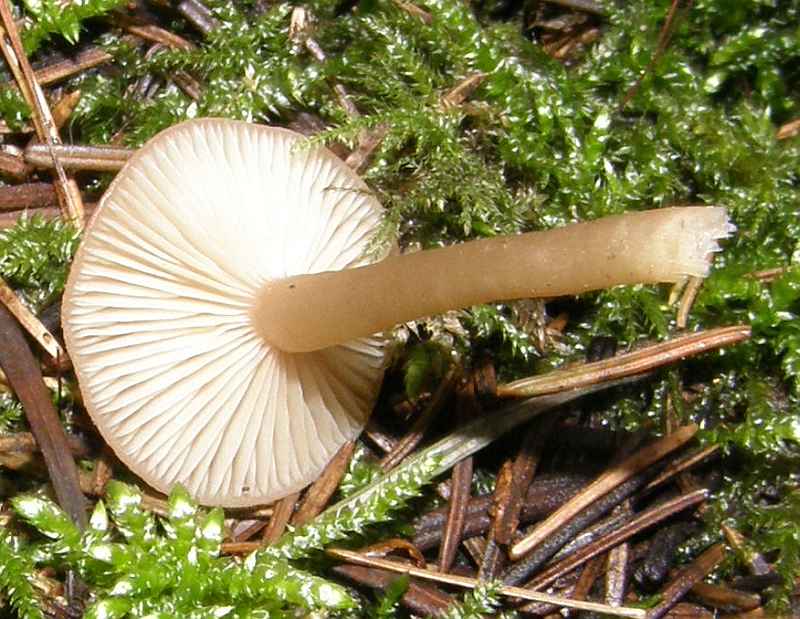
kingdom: Fungi
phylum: Basidiomycota
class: Agaricomycetes
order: Agaricales
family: Tricholomataceae
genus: Clitocybe
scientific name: Clitocybe fragrans
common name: vellugtende tragthat
